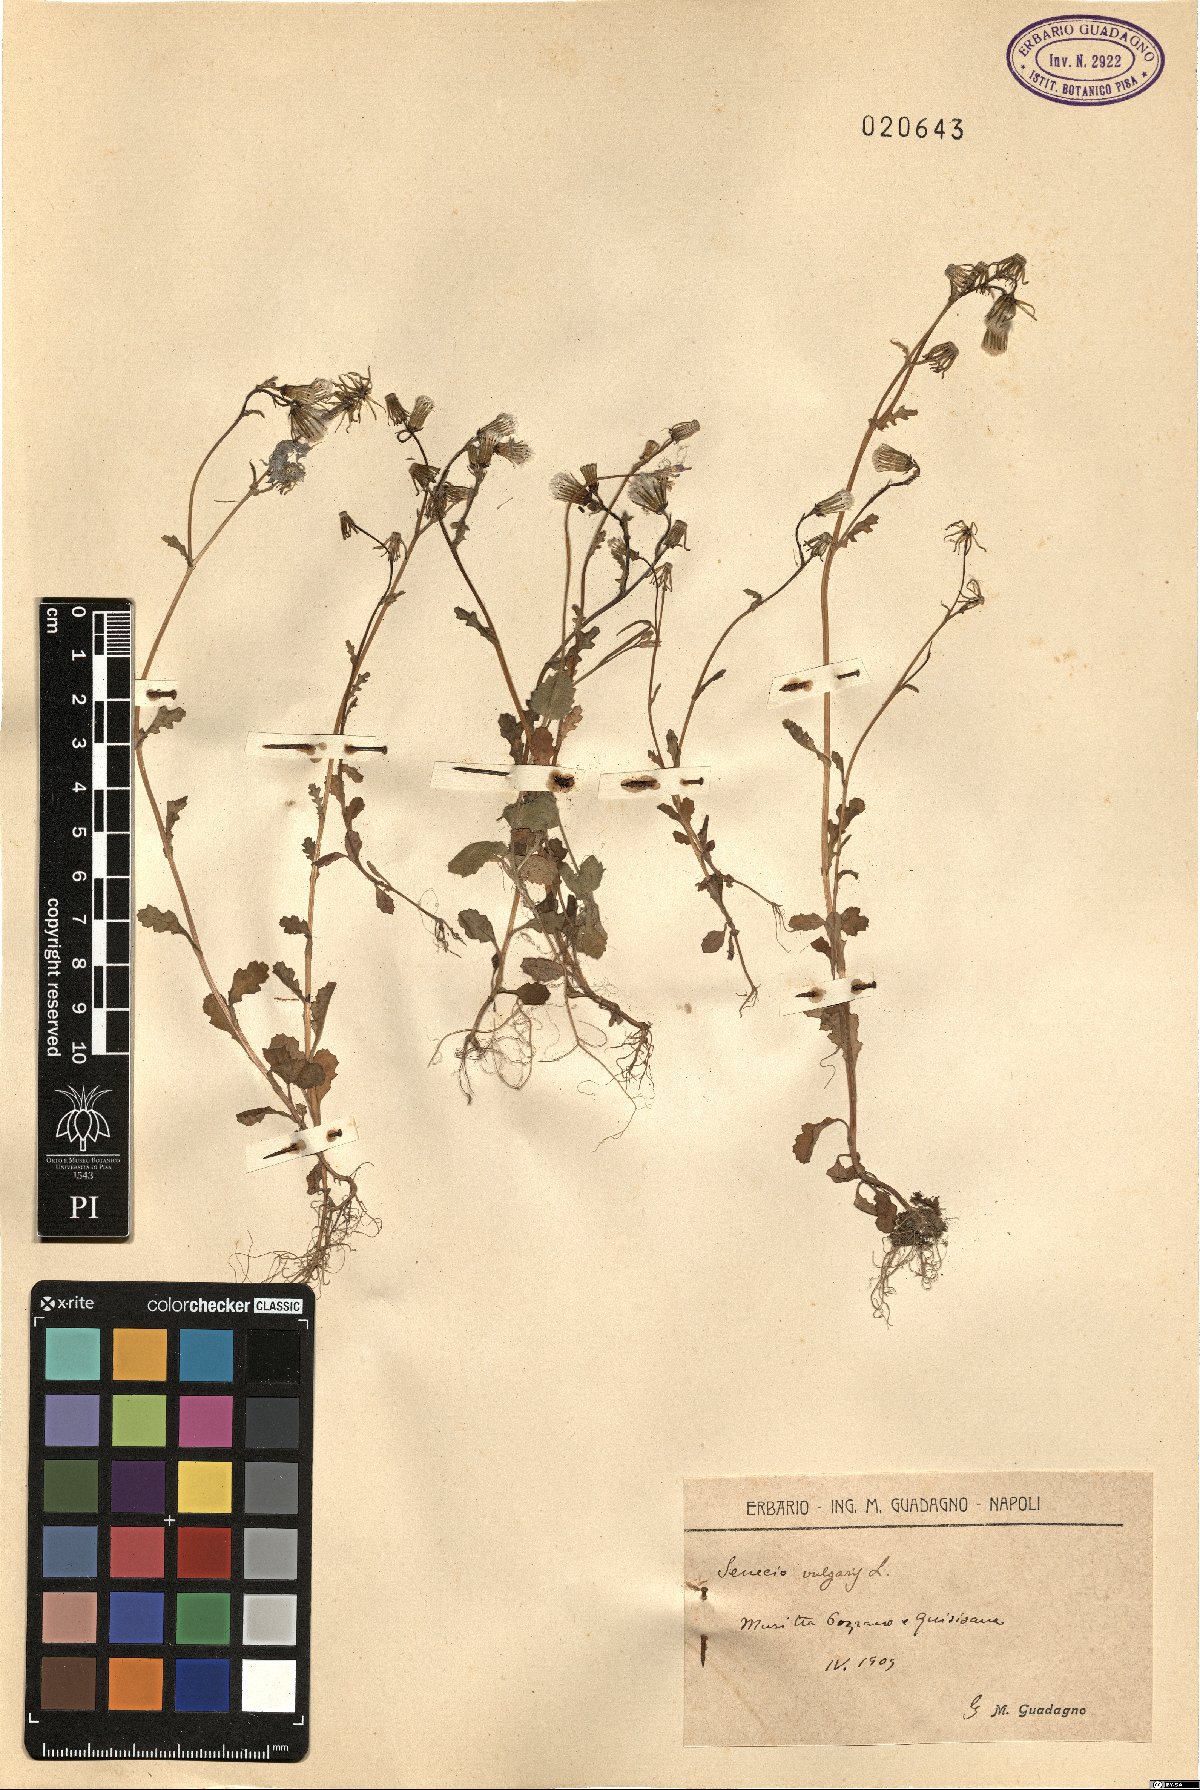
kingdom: Plantae
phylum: Tracheophyta
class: Magnoliopsida
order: Asterales
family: Asteraceae
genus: Senecio
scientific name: Senecio vulgaris
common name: Old-man-in-the-spring
